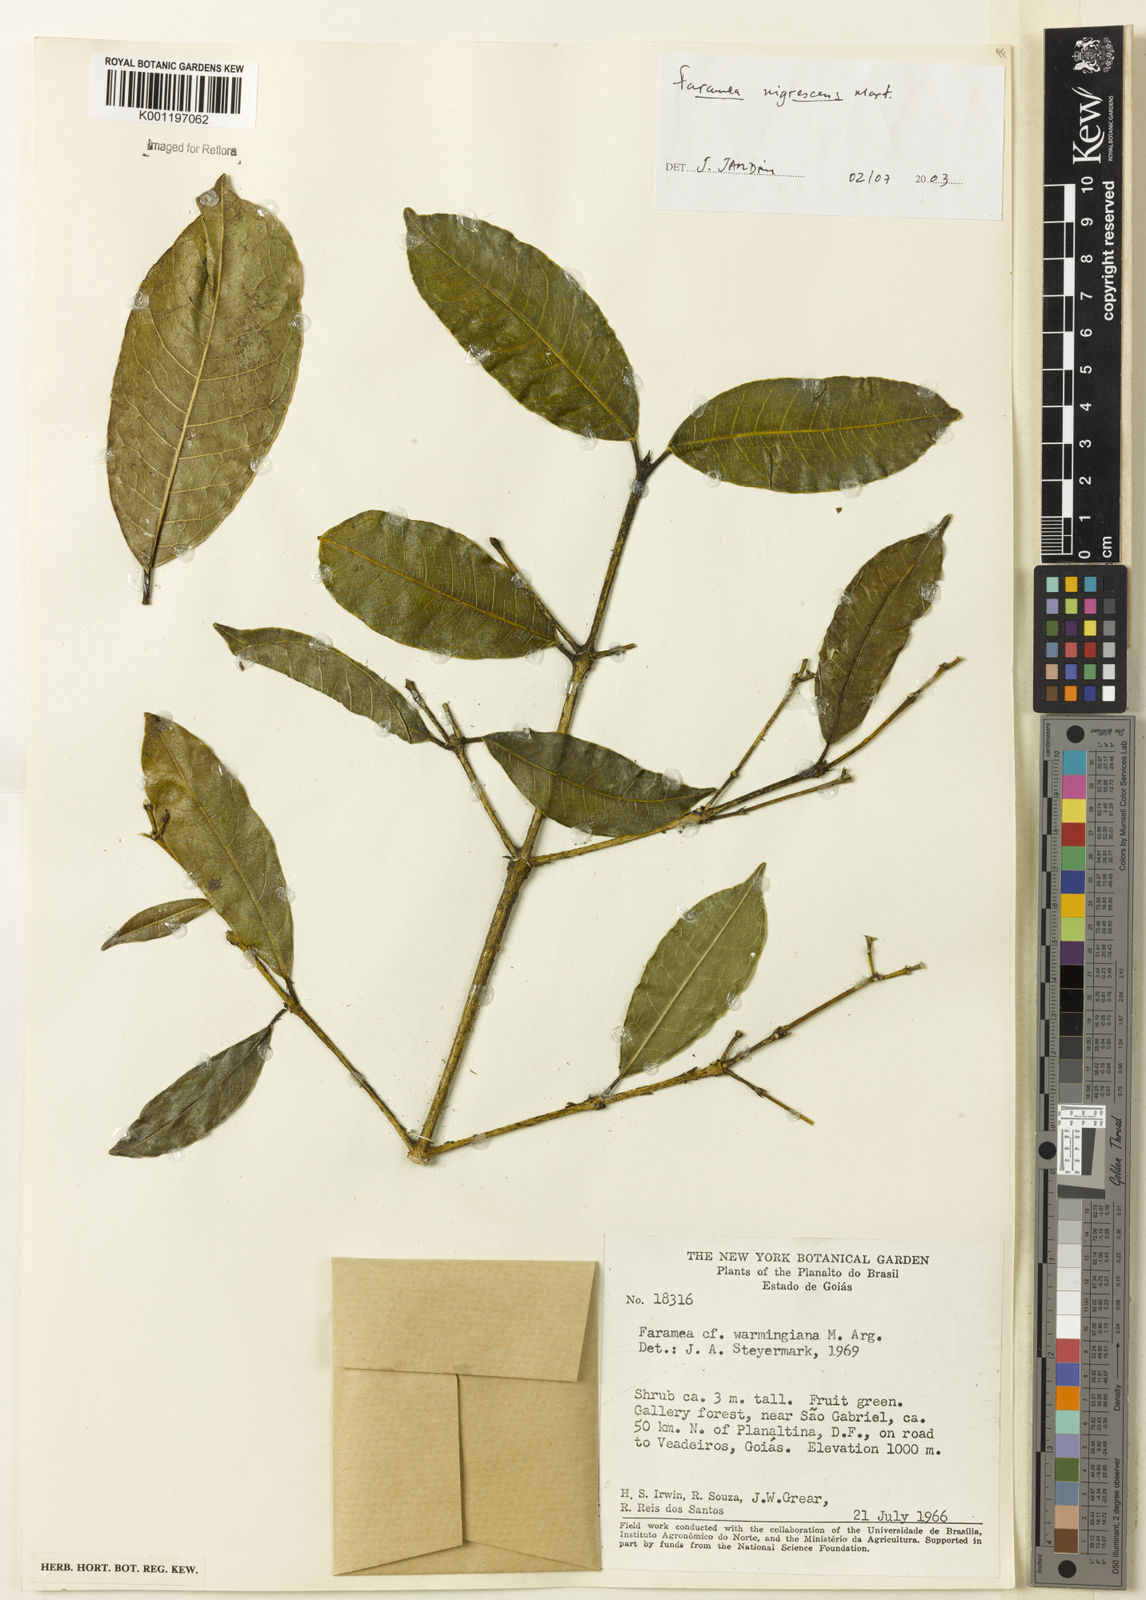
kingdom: Plantae
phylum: Tracheophyta
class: Magnoliopsida
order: Gentianales
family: Rubiaceae
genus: Faramea
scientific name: Faramea nigrescens
